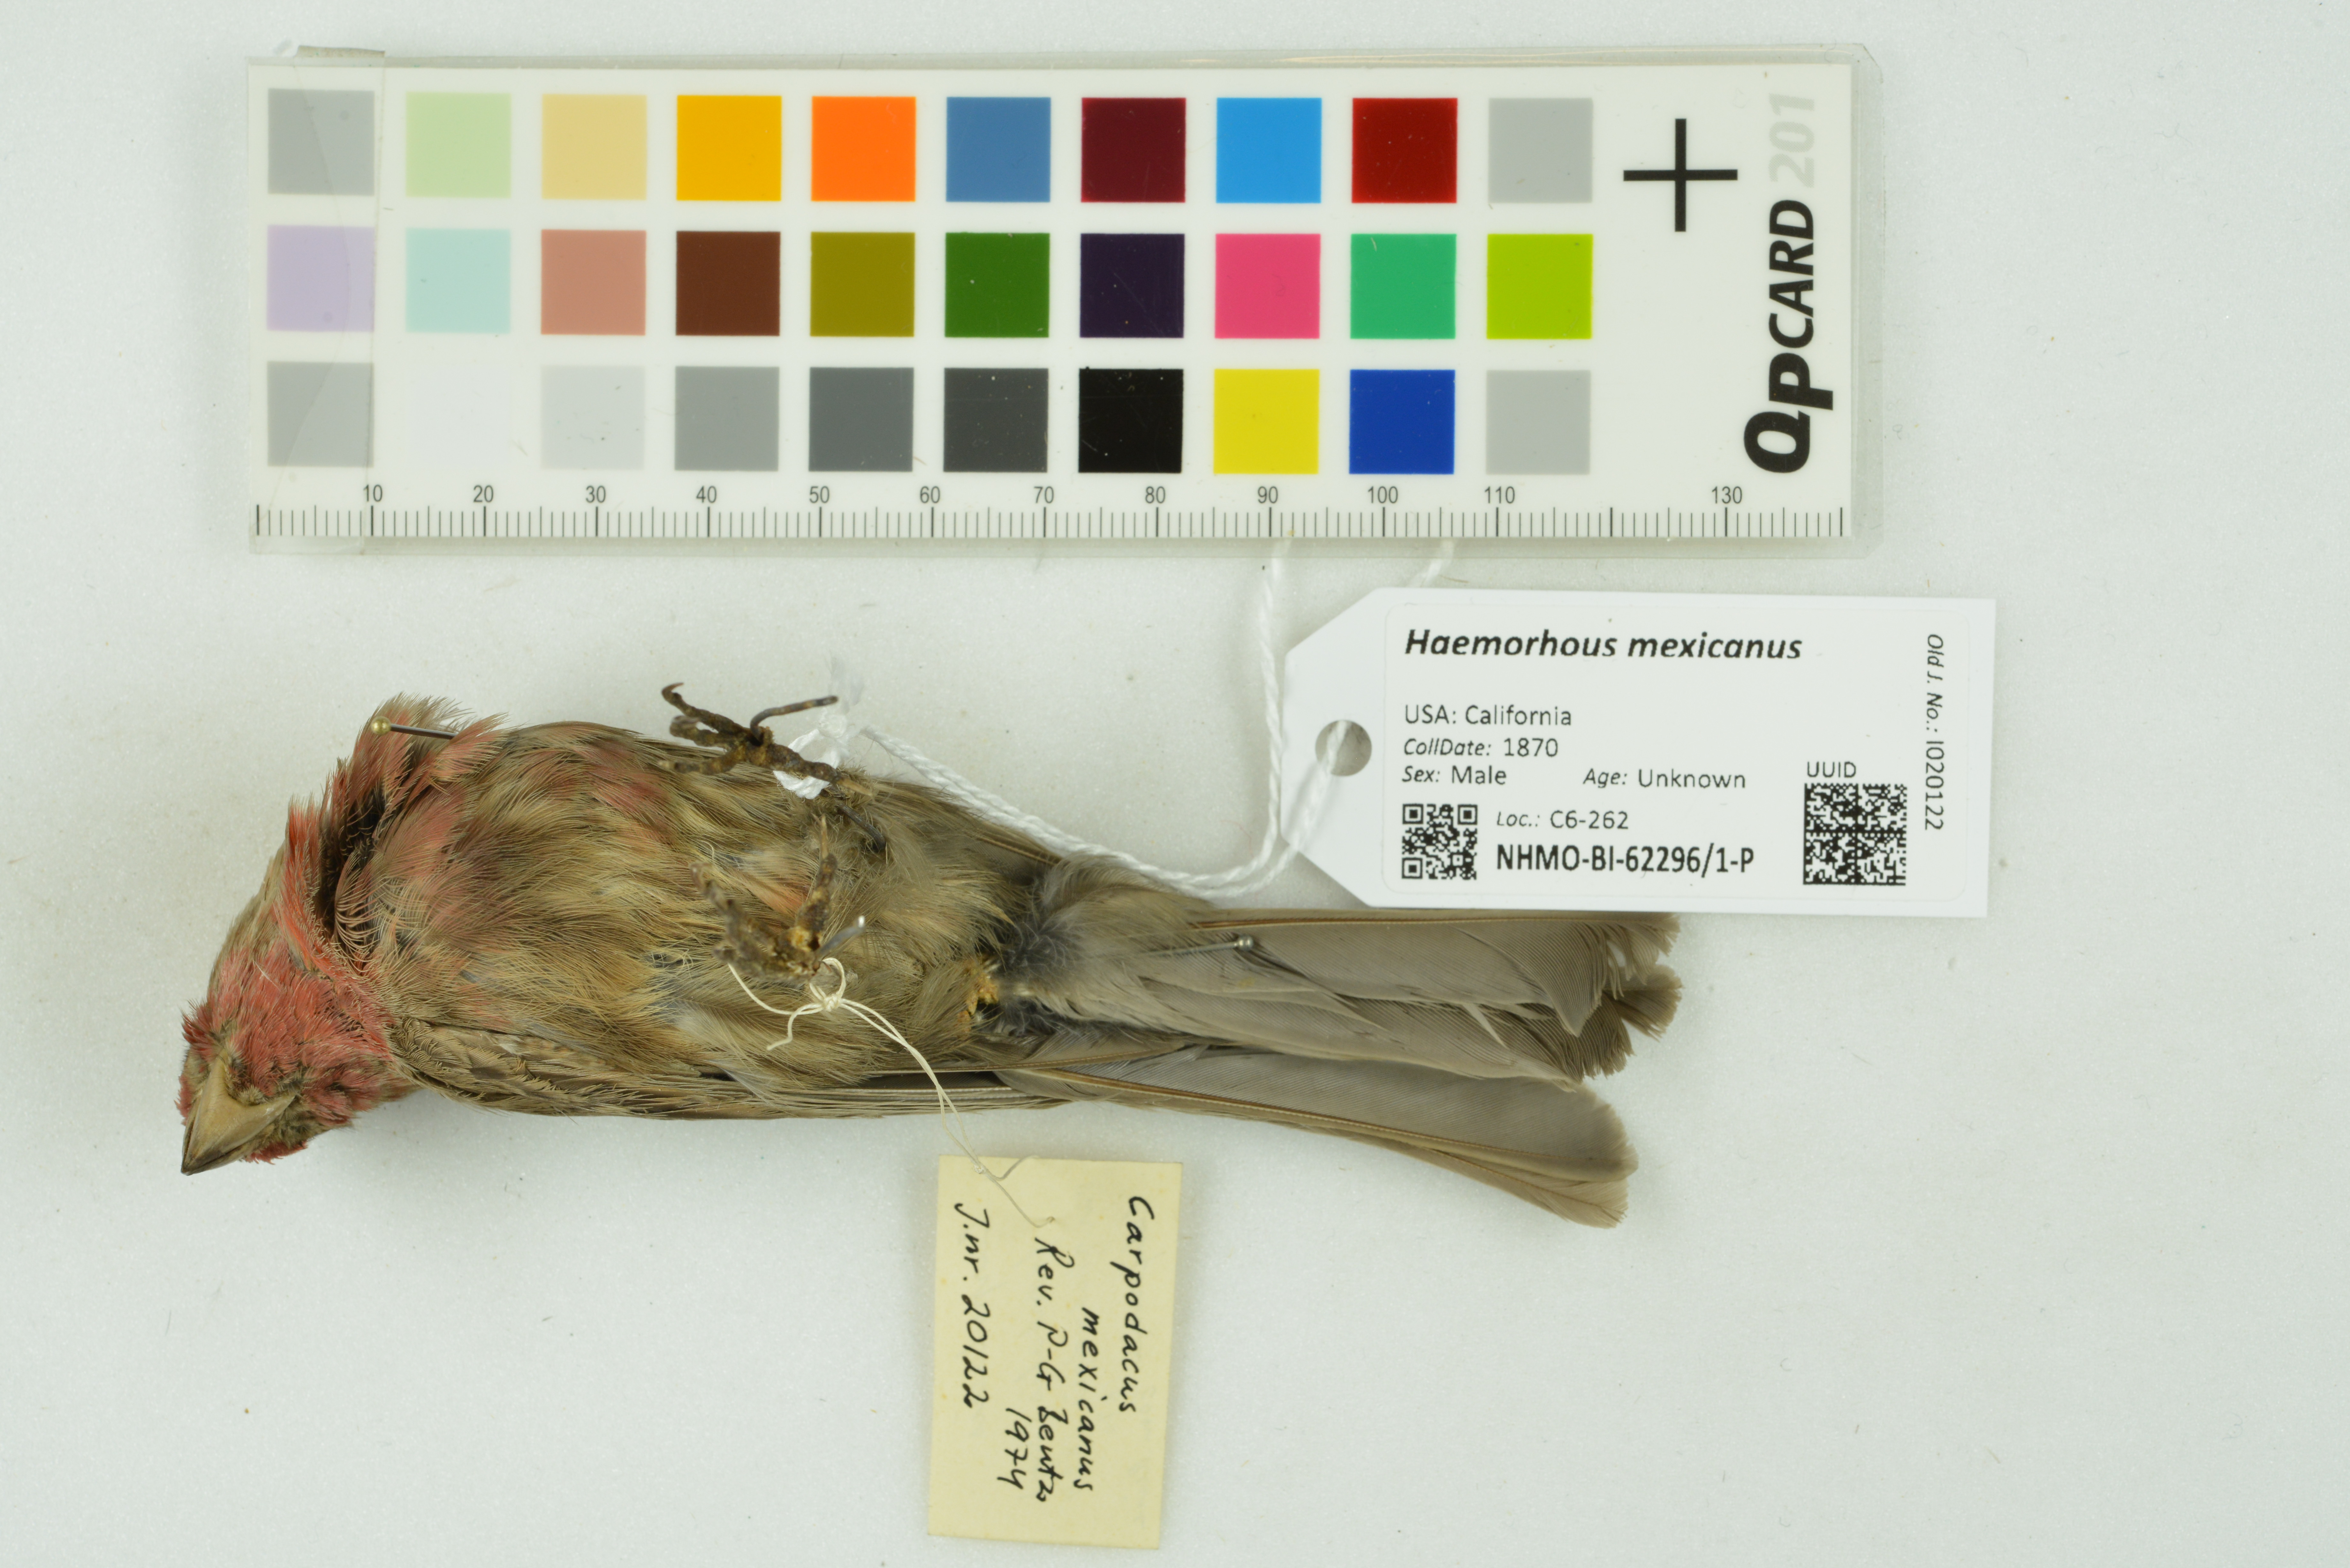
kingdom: Animalia
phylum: Chordata
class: Aves
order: Passeriformes
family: Fringillidae
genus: Haemorhous
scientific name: Haemorhous mexicanus
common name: House finch
